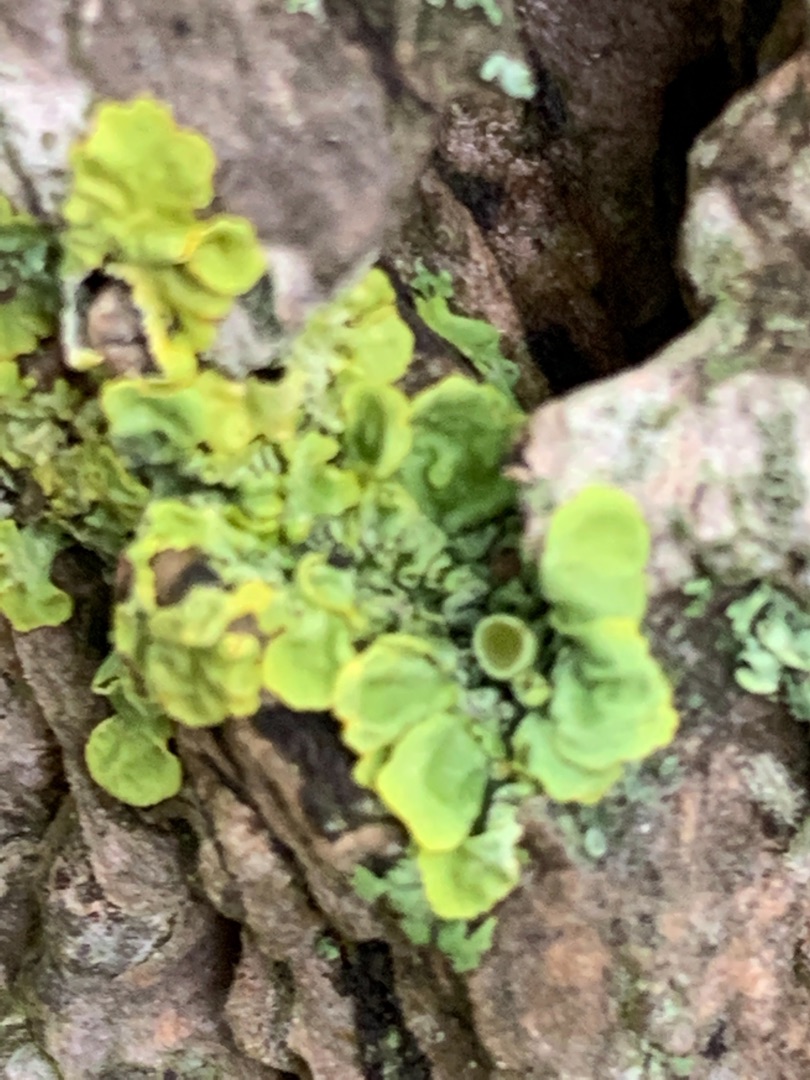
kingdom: Fungi
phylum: Ascomycota
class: Lecanoromycetes
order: Teloschistales
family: Teloschistaceae
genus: Xanthoria
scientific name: Xanthoria parietina
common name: Almindelig væggelav
